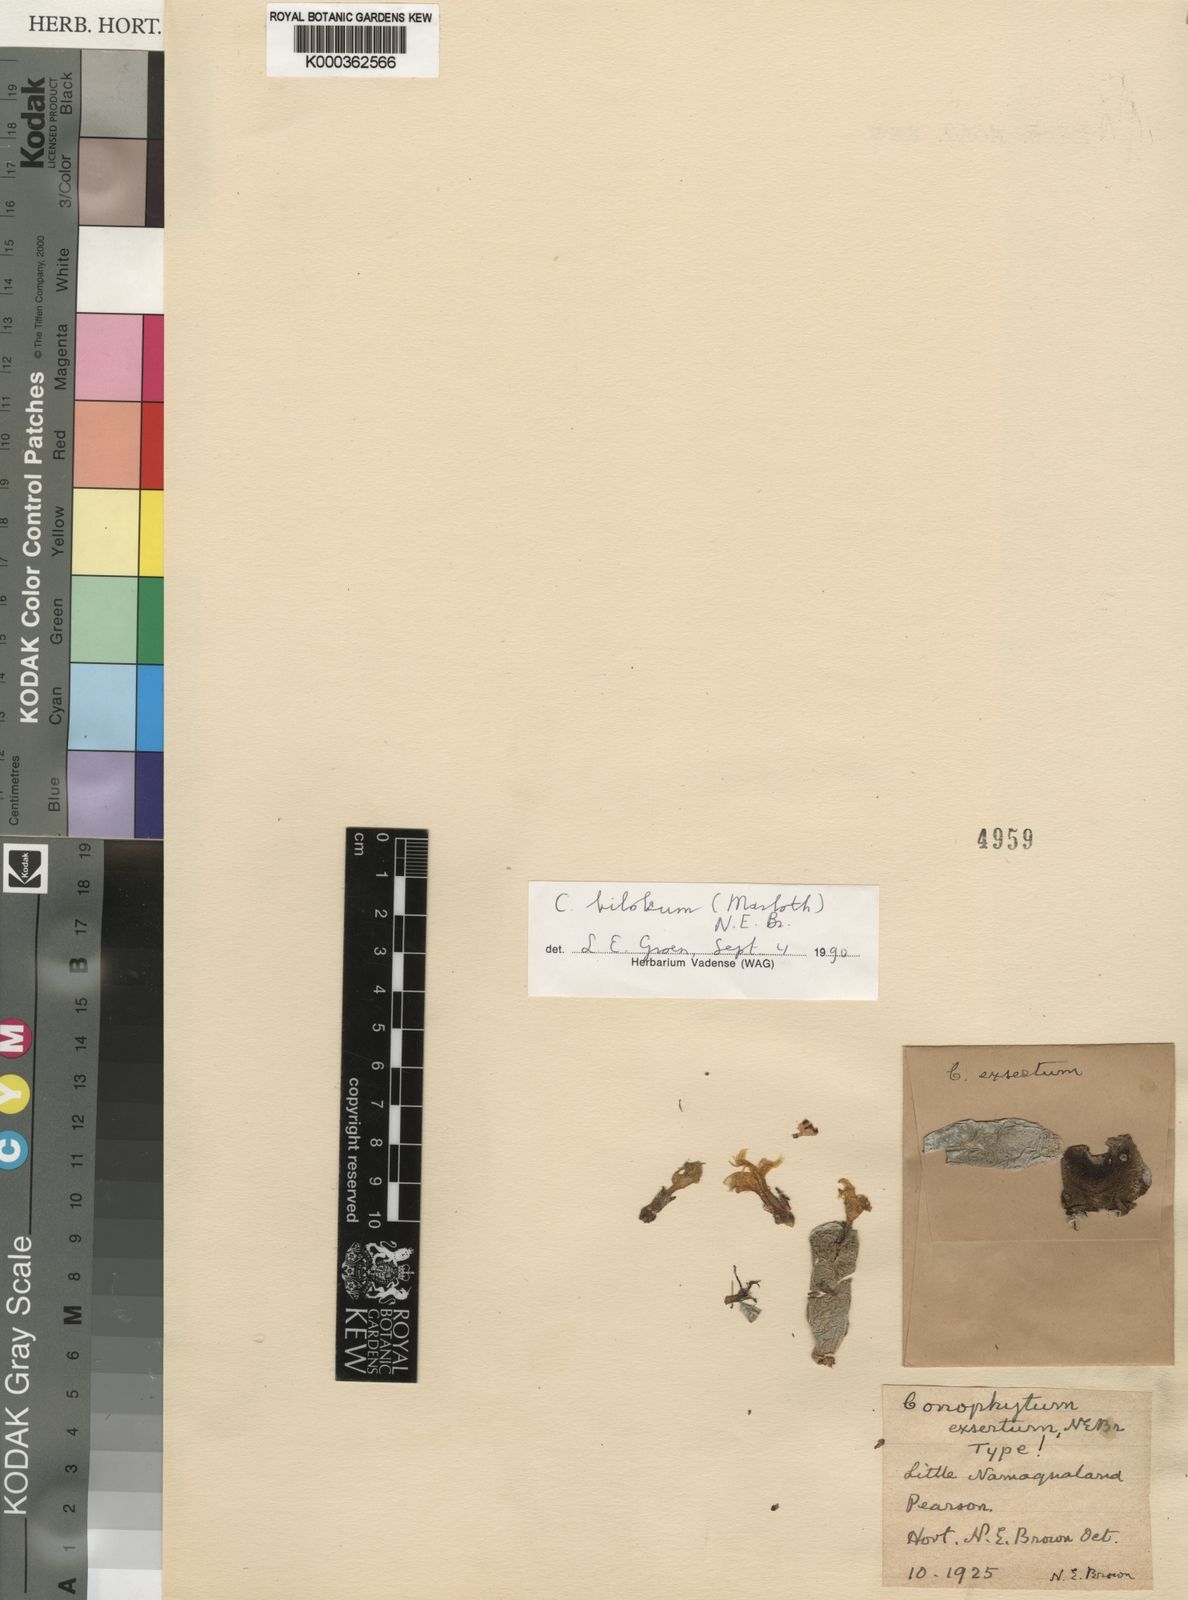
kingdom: Plantae
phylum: Tracheophyta
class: Magnoliopsida
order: Caryophyllales
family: Aizoaceae
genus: Conophytum
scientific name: Conophytum bilobum
